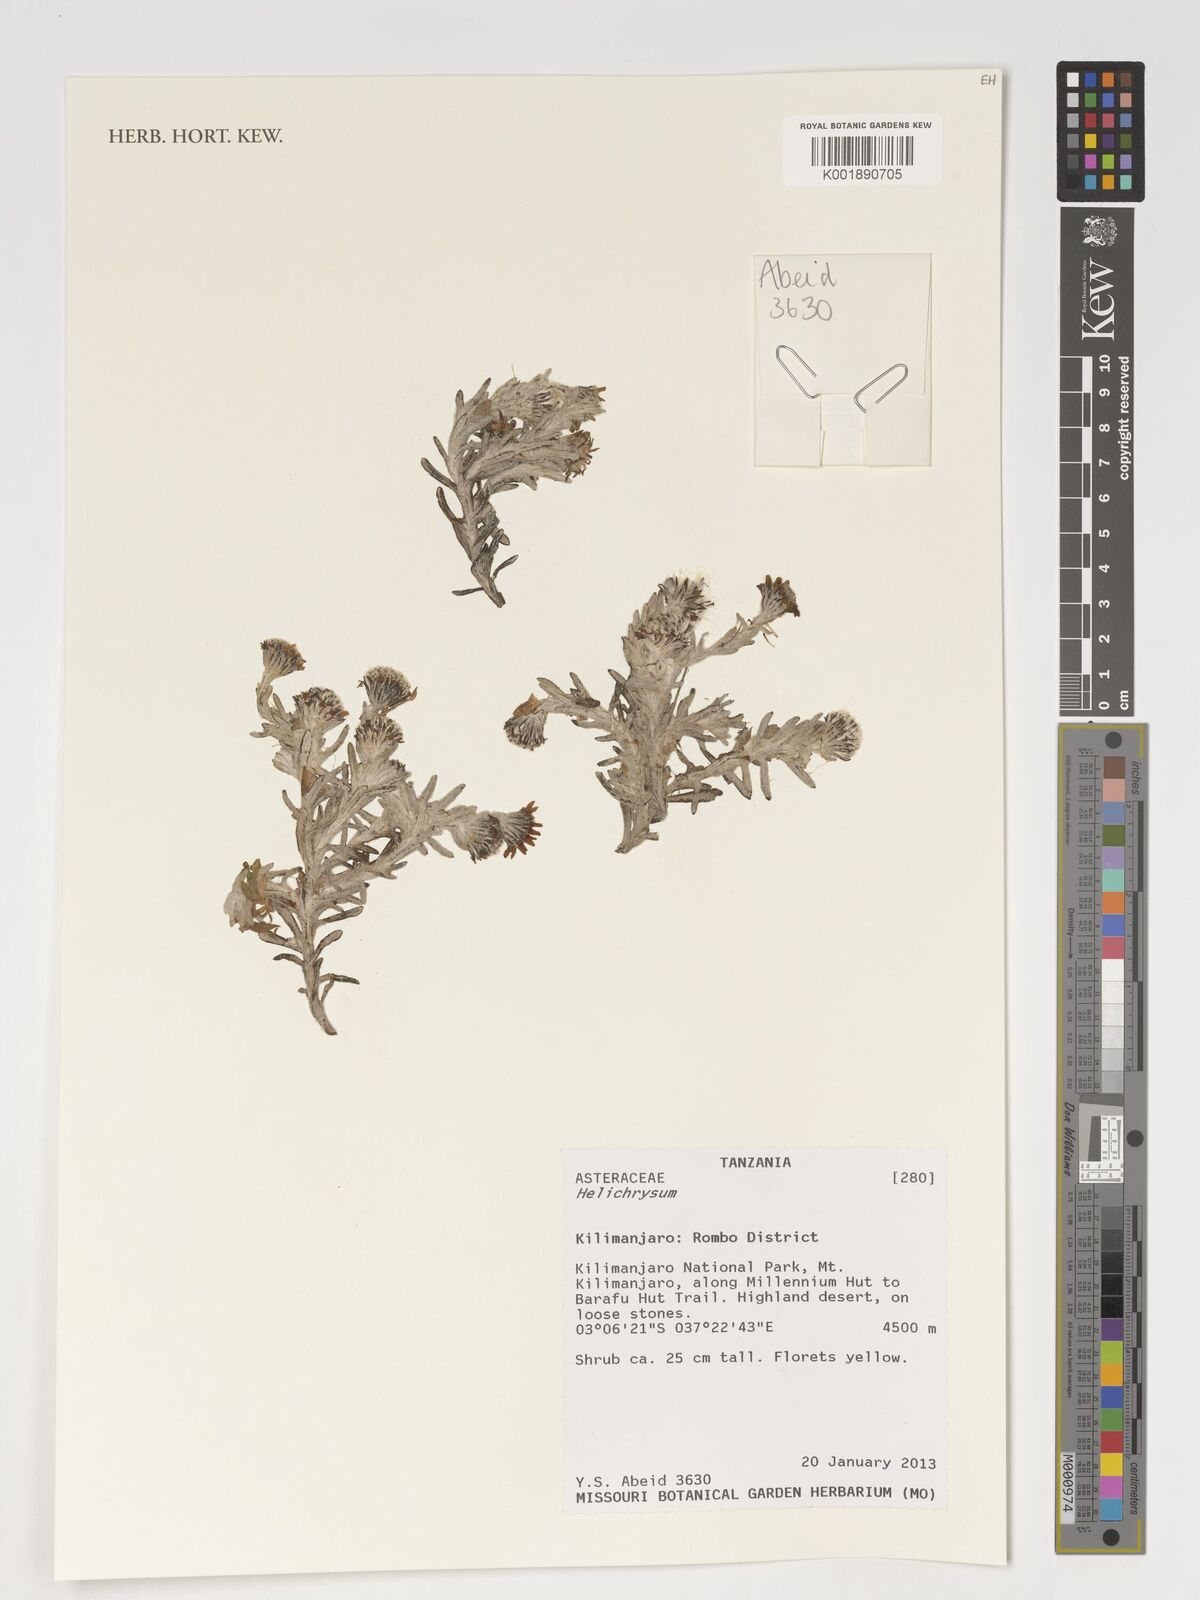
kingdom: Plantae
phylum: Tracheophyta
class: Magnoliopsida
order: Asterales
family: Asteraceae
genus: Helichrysum
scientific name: Helichrysum
